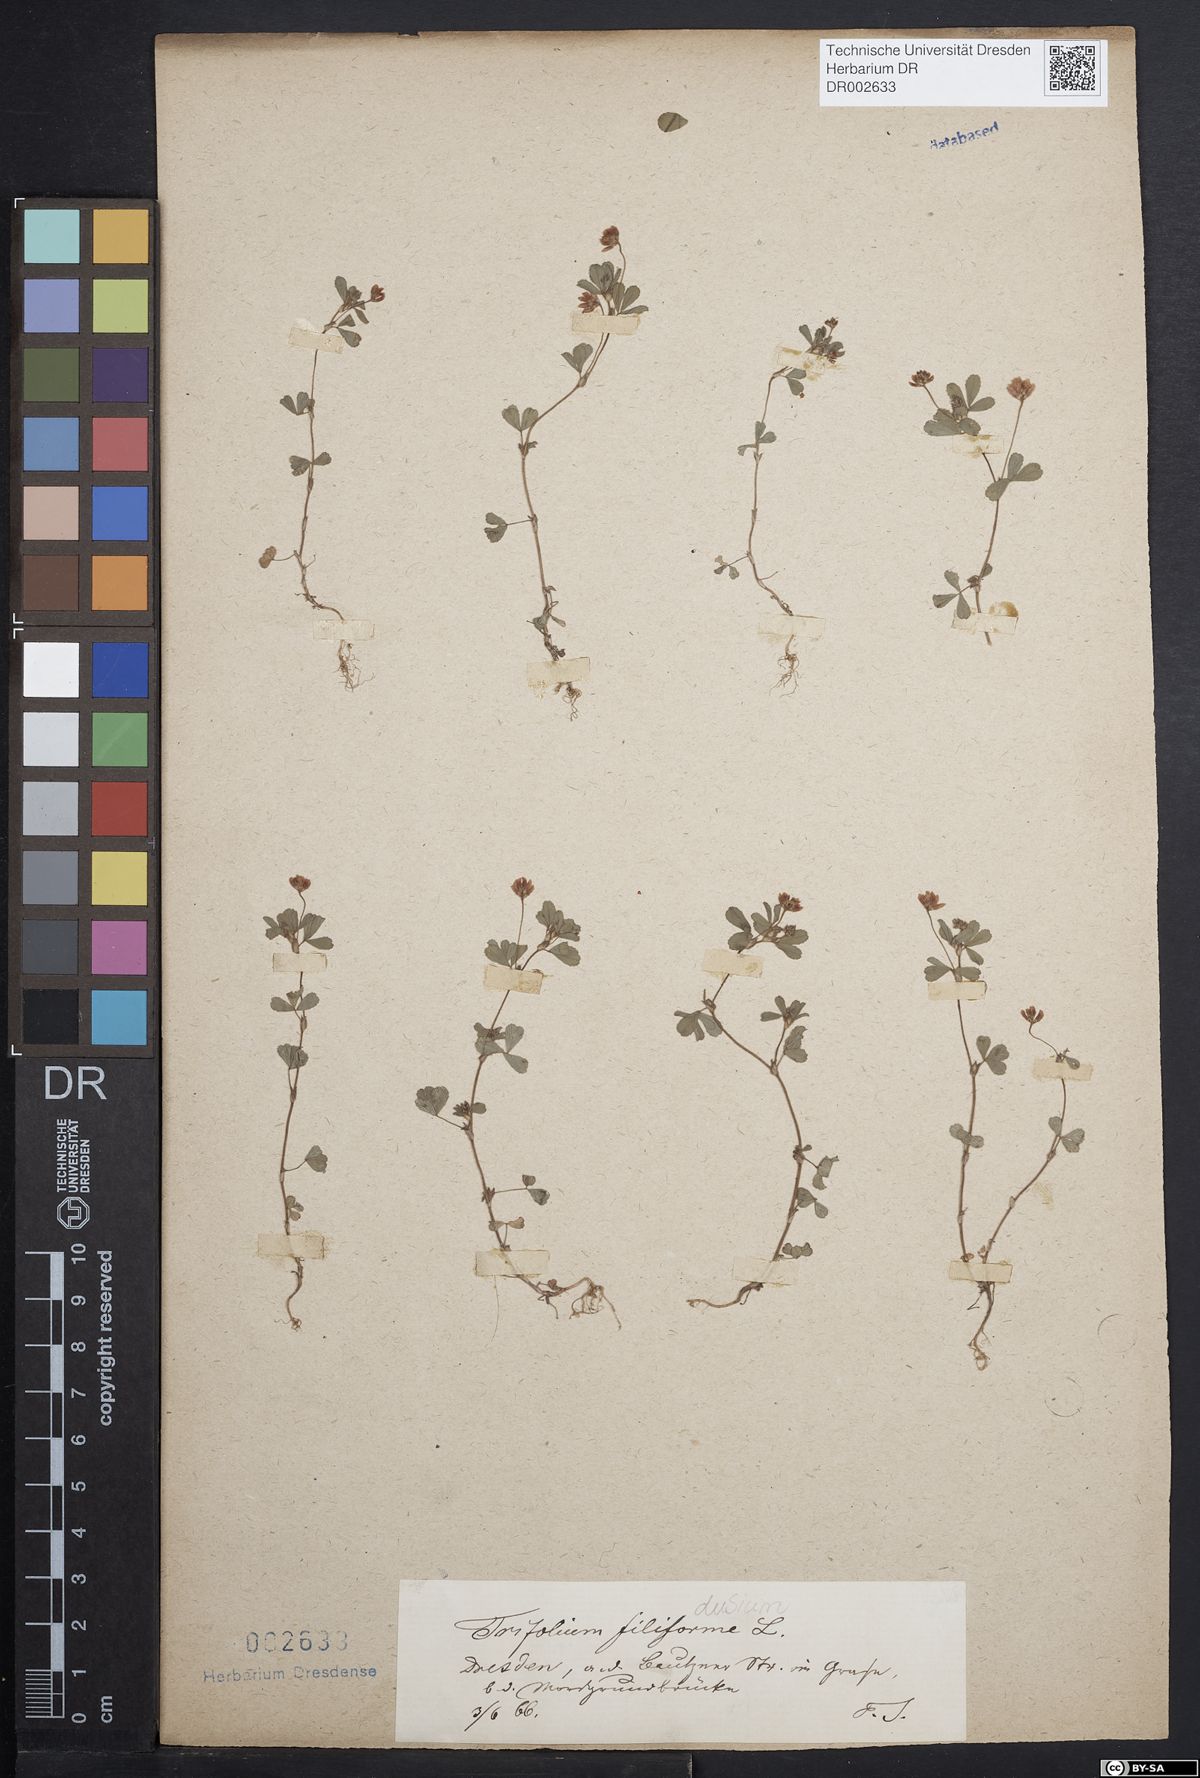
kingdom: Plantae
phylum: Tracheophyta
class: Magnoliopsida
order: Fabales
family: Fabaceae
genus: Trifolium
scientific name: Trifolium dubium
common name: Suckling clover
